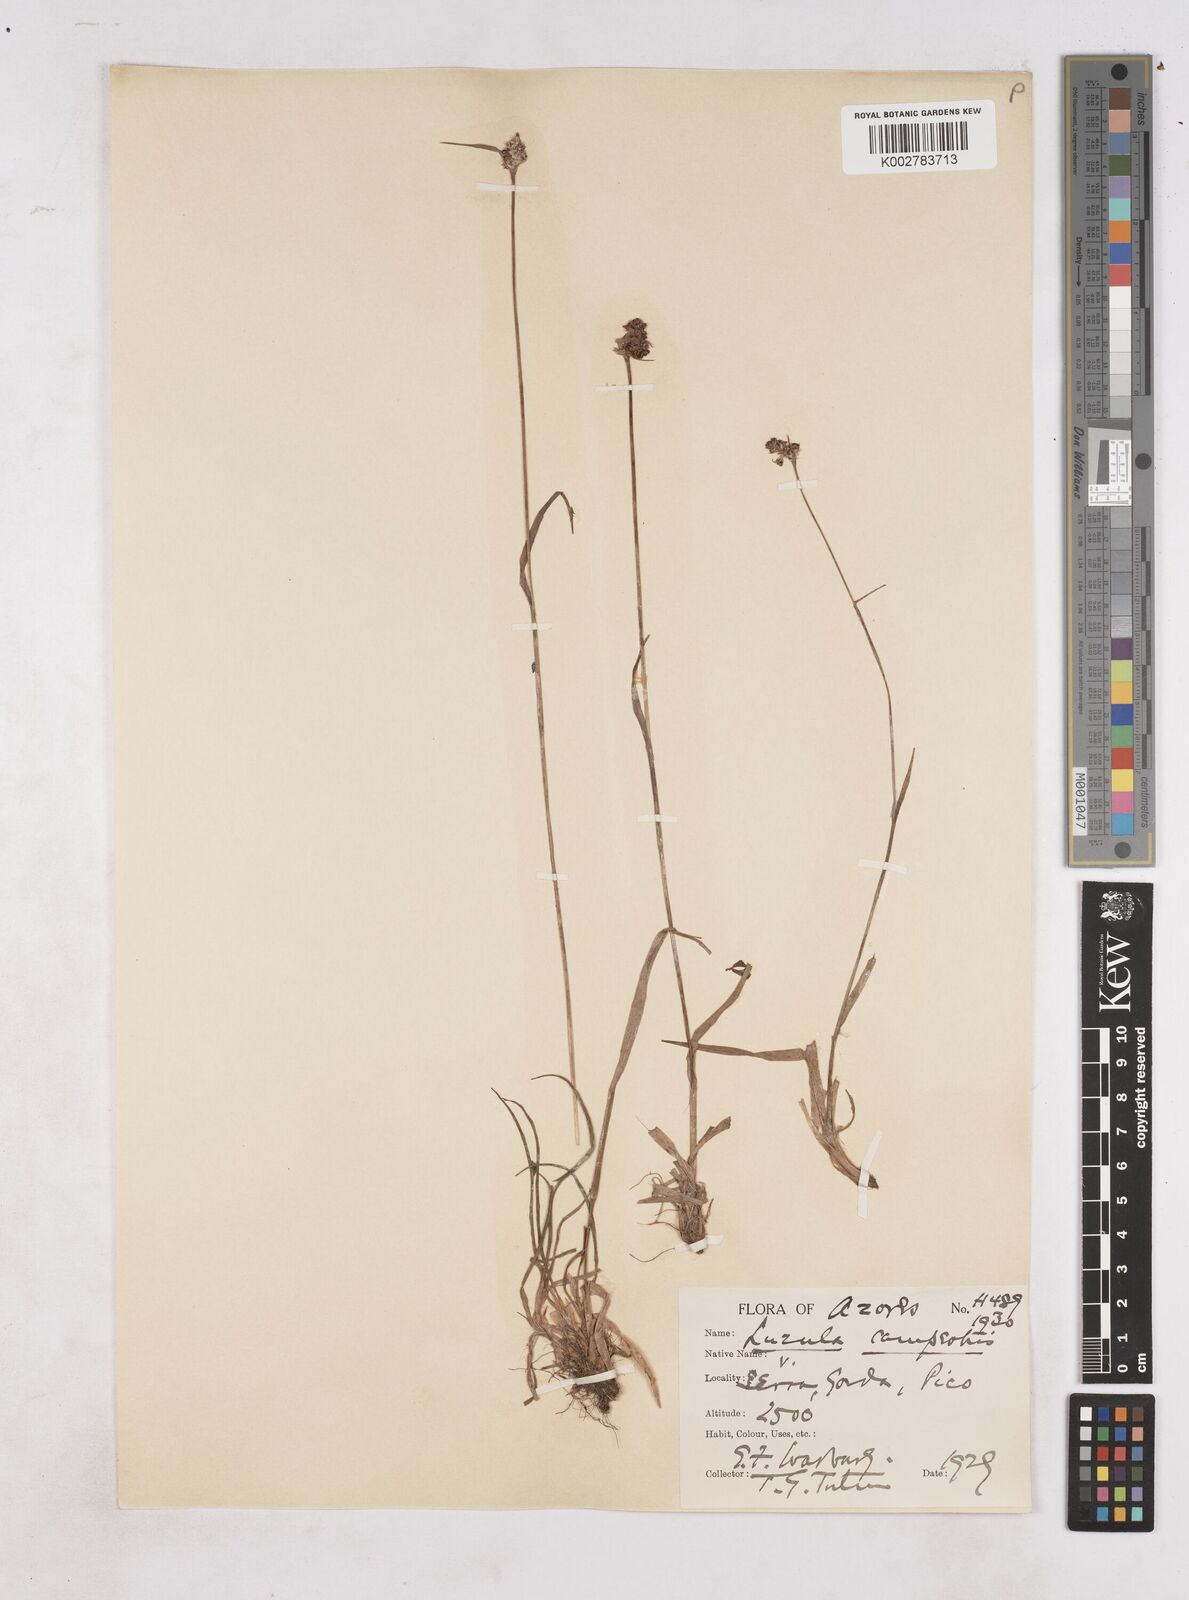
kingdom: Plantae
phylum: Tracheophyta
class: Liliopsida
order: Poales
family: Juncaceae
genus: Luzula
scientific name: Luzula campestris
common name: Field wood-rush
